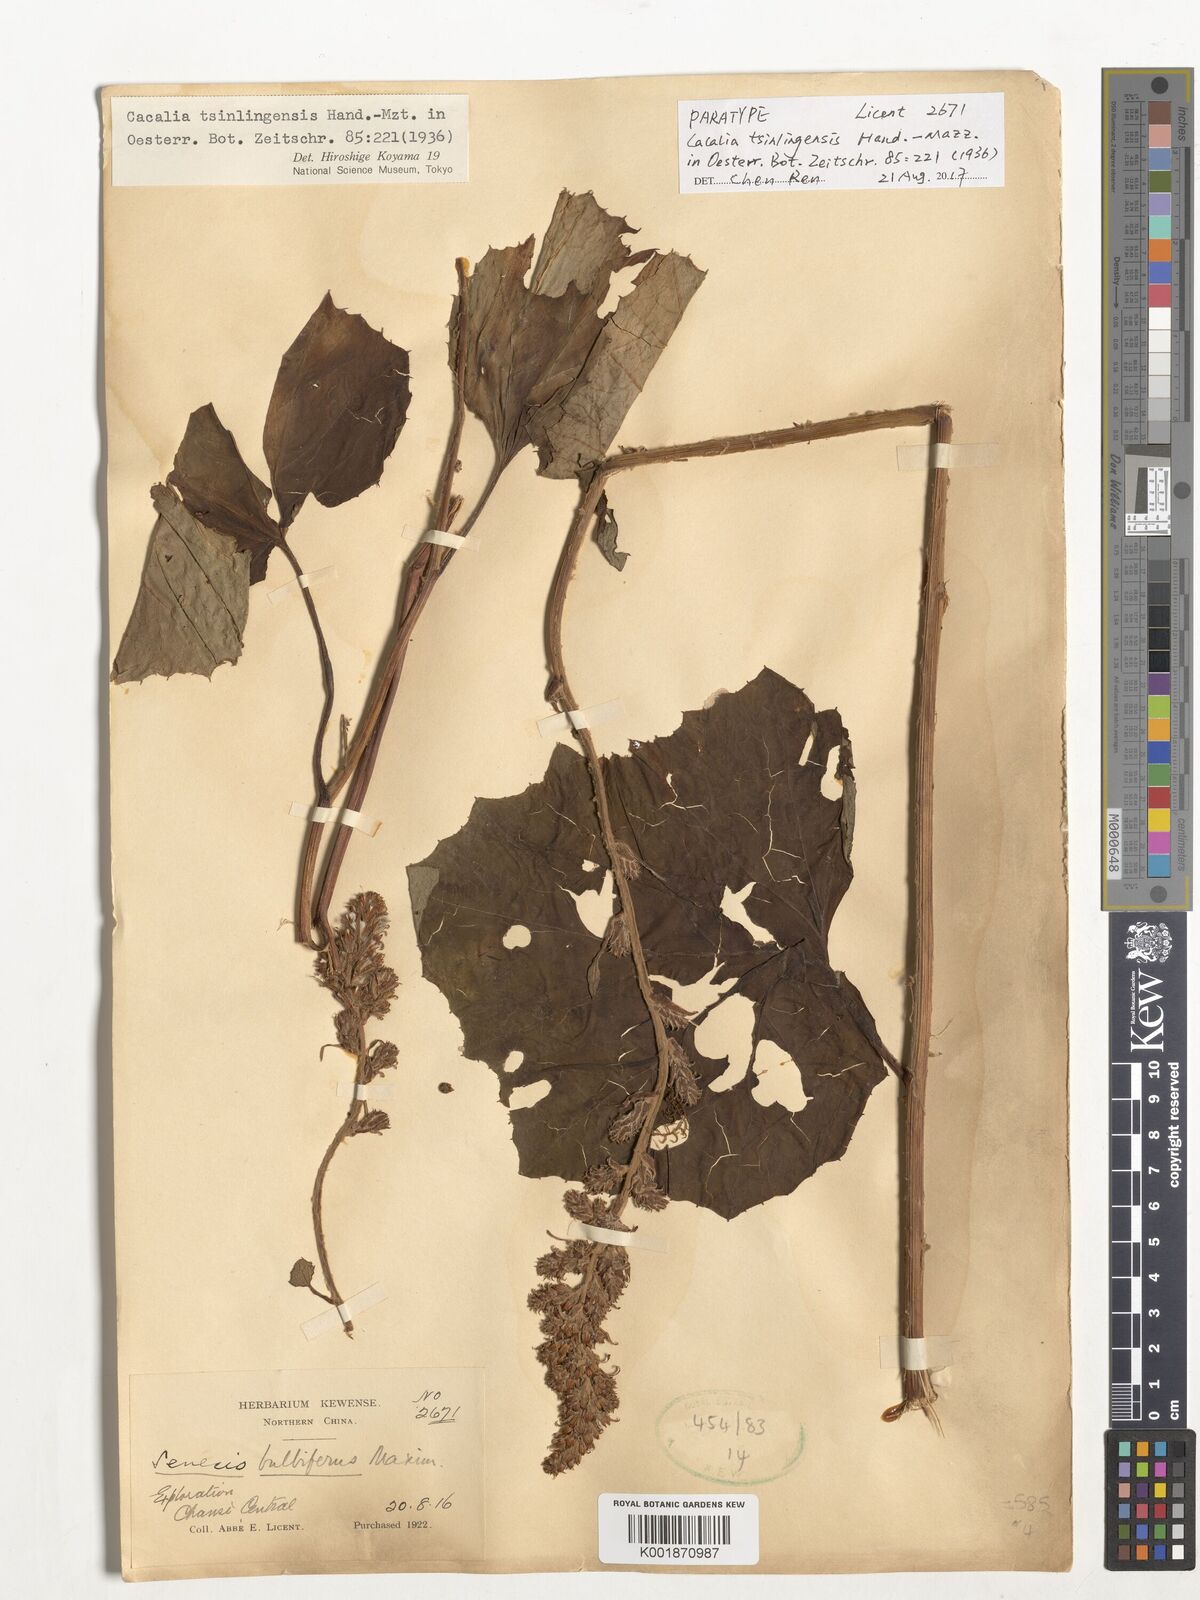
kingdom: Plantae
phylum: Tracheophyta
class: Magnoliopsida
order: Asterales
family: Asteraceae
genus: Parasenecio
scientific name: Parasenecio tsinlingensis
